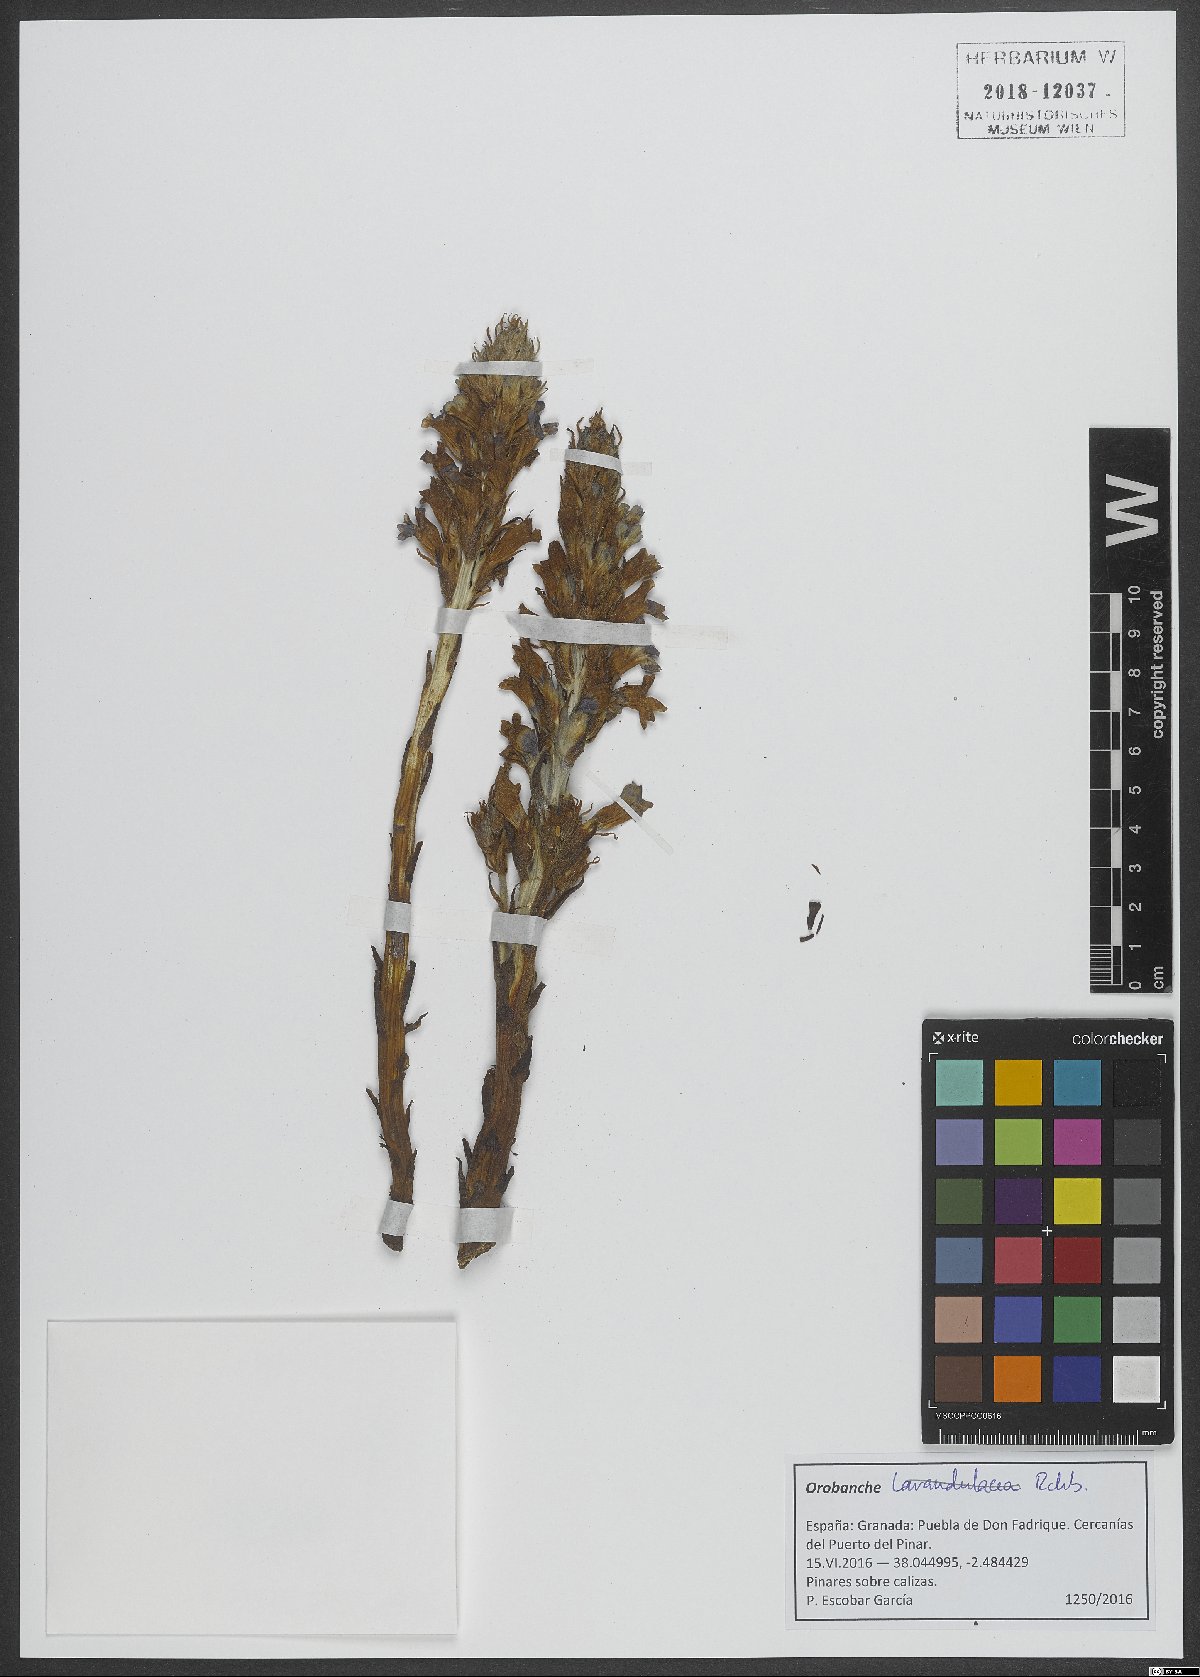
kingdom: Plantae
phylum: Tracheophyta
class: Magnoliopsida
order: Lamiales
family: Orobanchaceae
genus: Orobanche
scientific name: Orobanche
